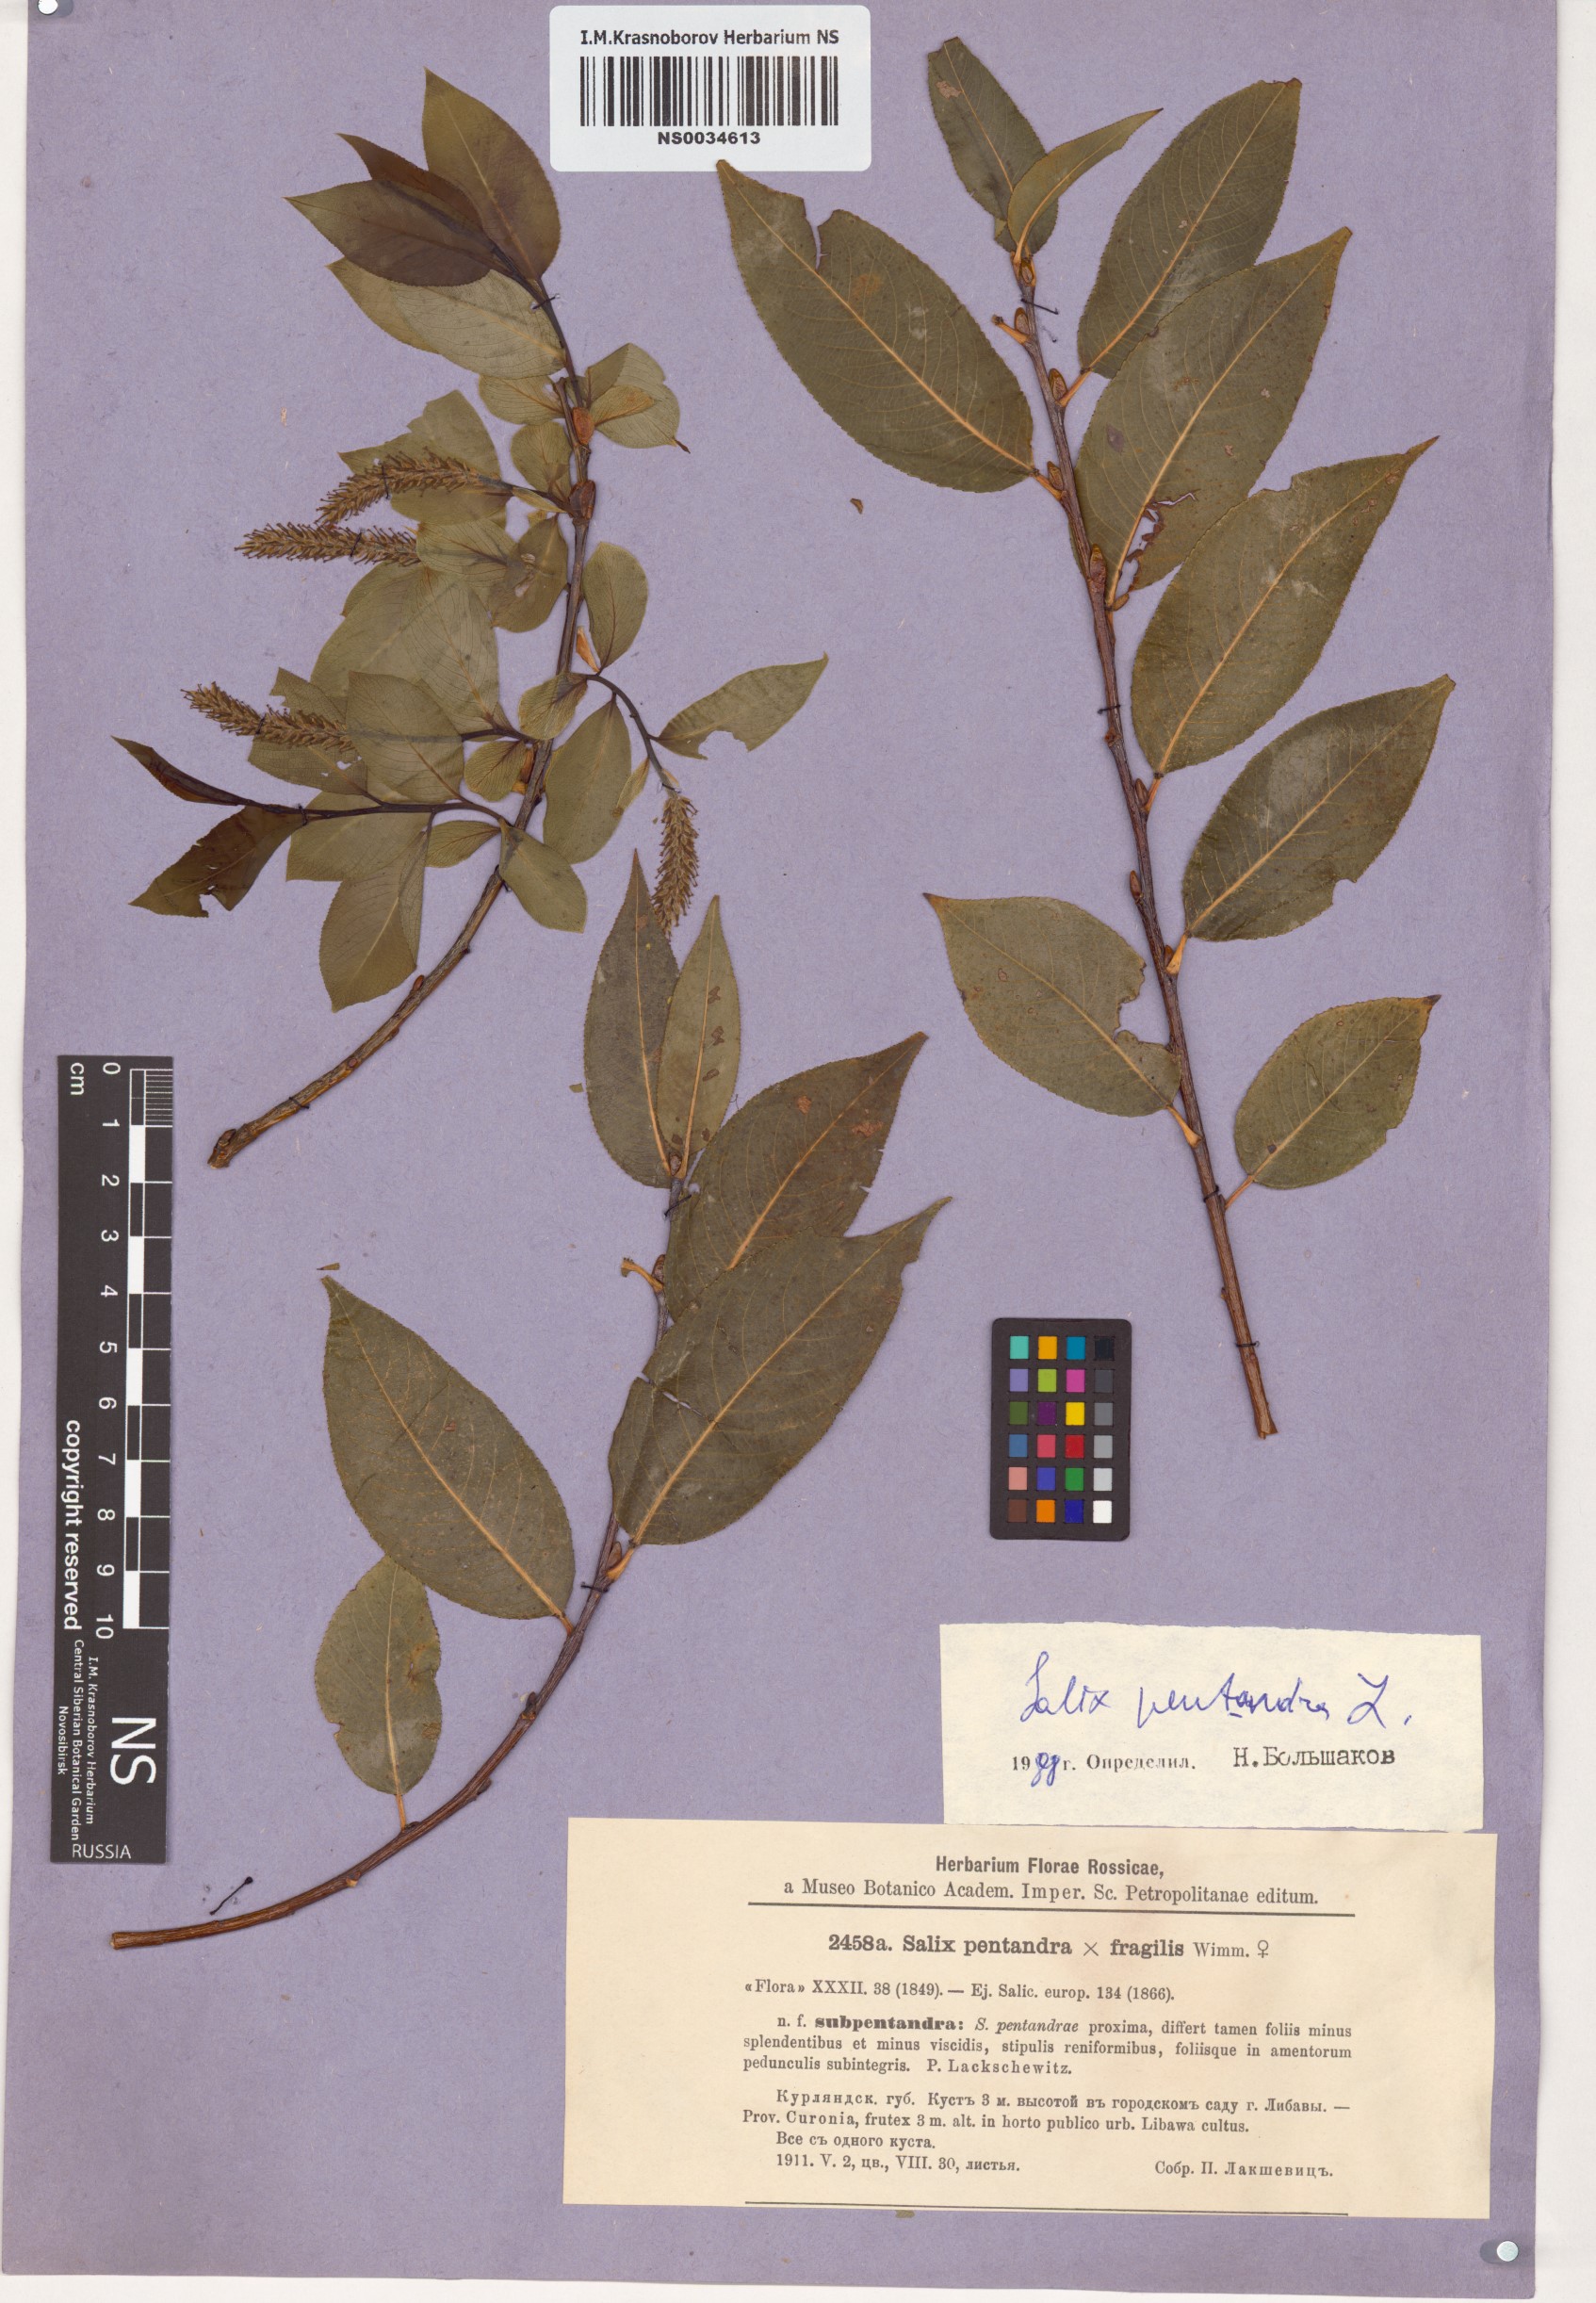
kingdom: Plantae
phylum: Tracheophyta
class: Magnoliopsida
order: Malpighiales
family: Salicaceae
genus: Salix
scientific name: Salix pentandra
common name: Bay willow
